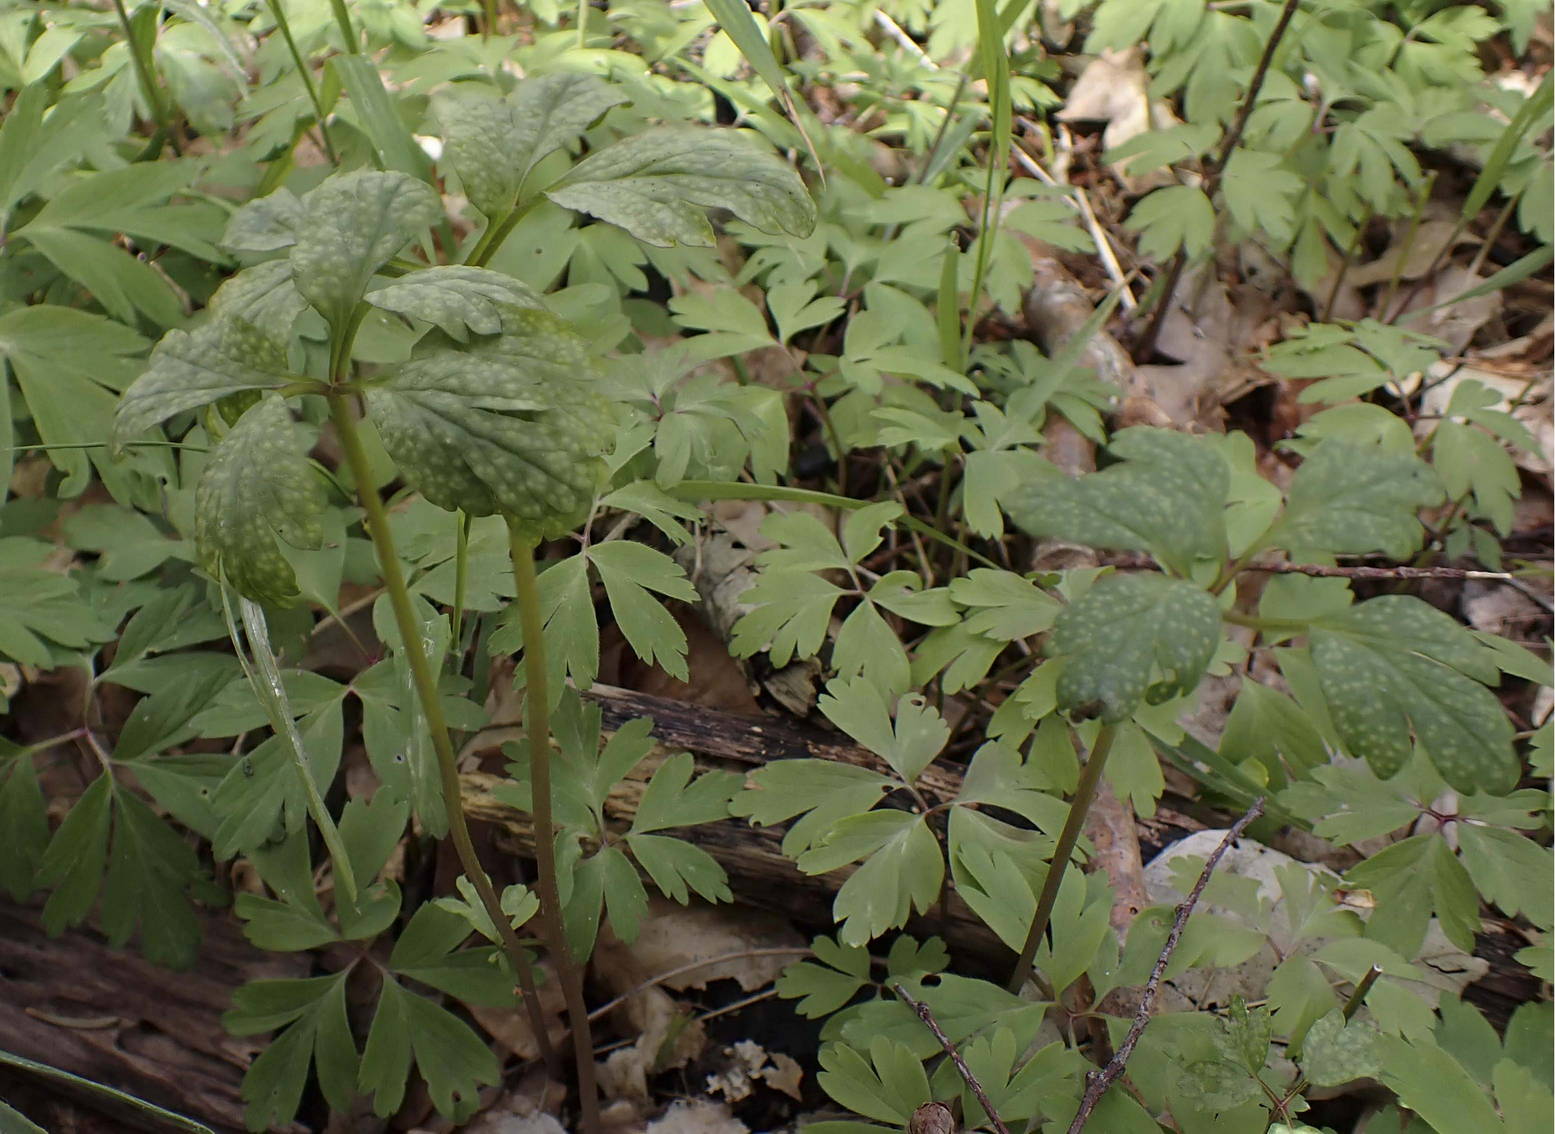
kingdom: Fungi
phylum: Basidiomycota
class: Pucciniomycetes
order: Pucciniales
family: Ochropsoraceae
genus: Ochropsora
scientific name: Ochropsora ariae
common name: anemone-okkerpletrust
